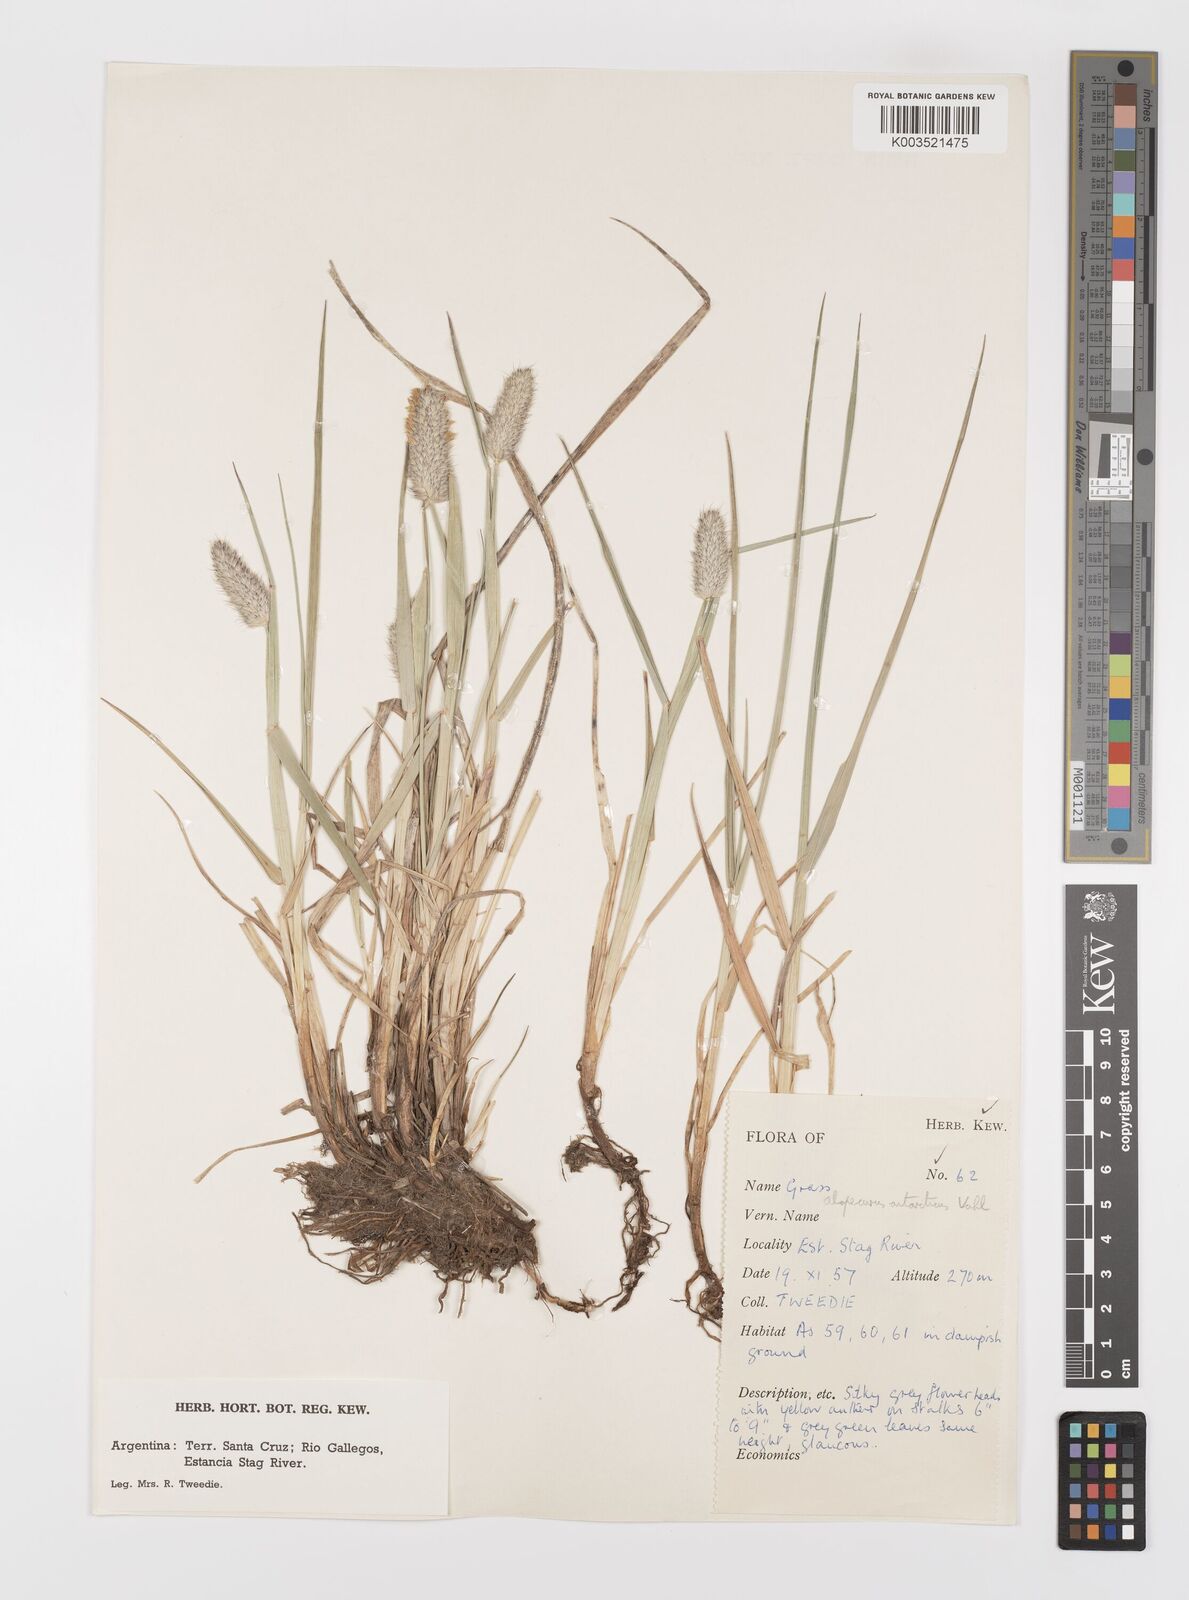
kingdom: Plantae
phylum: Tracheophyta
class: Liliopsida
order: Poales
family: Poaceae
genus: Alopecurus
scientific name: Alopecurus magellanicus
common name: Alpine foxtail
